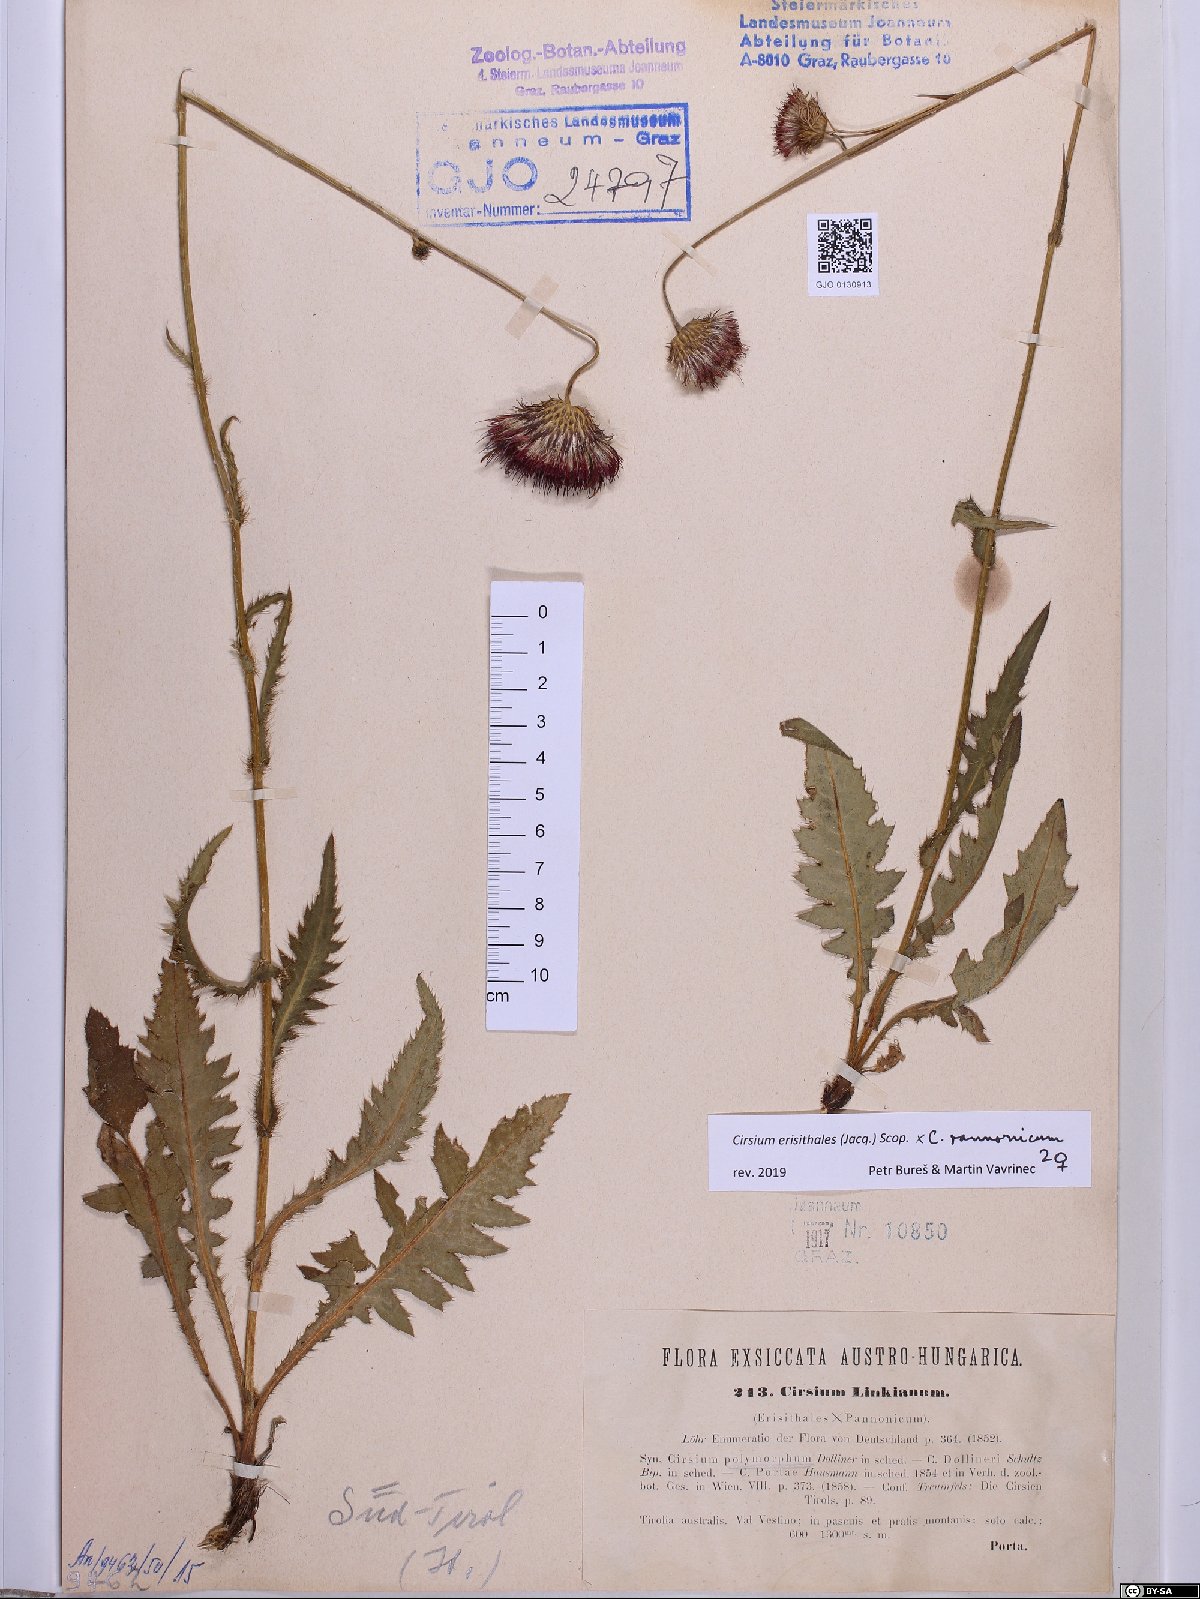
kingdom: Plantae
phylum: Tracheophyta
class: Magnoliopsida
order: Asterales
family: Asteraceae
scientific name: Asteraceae
